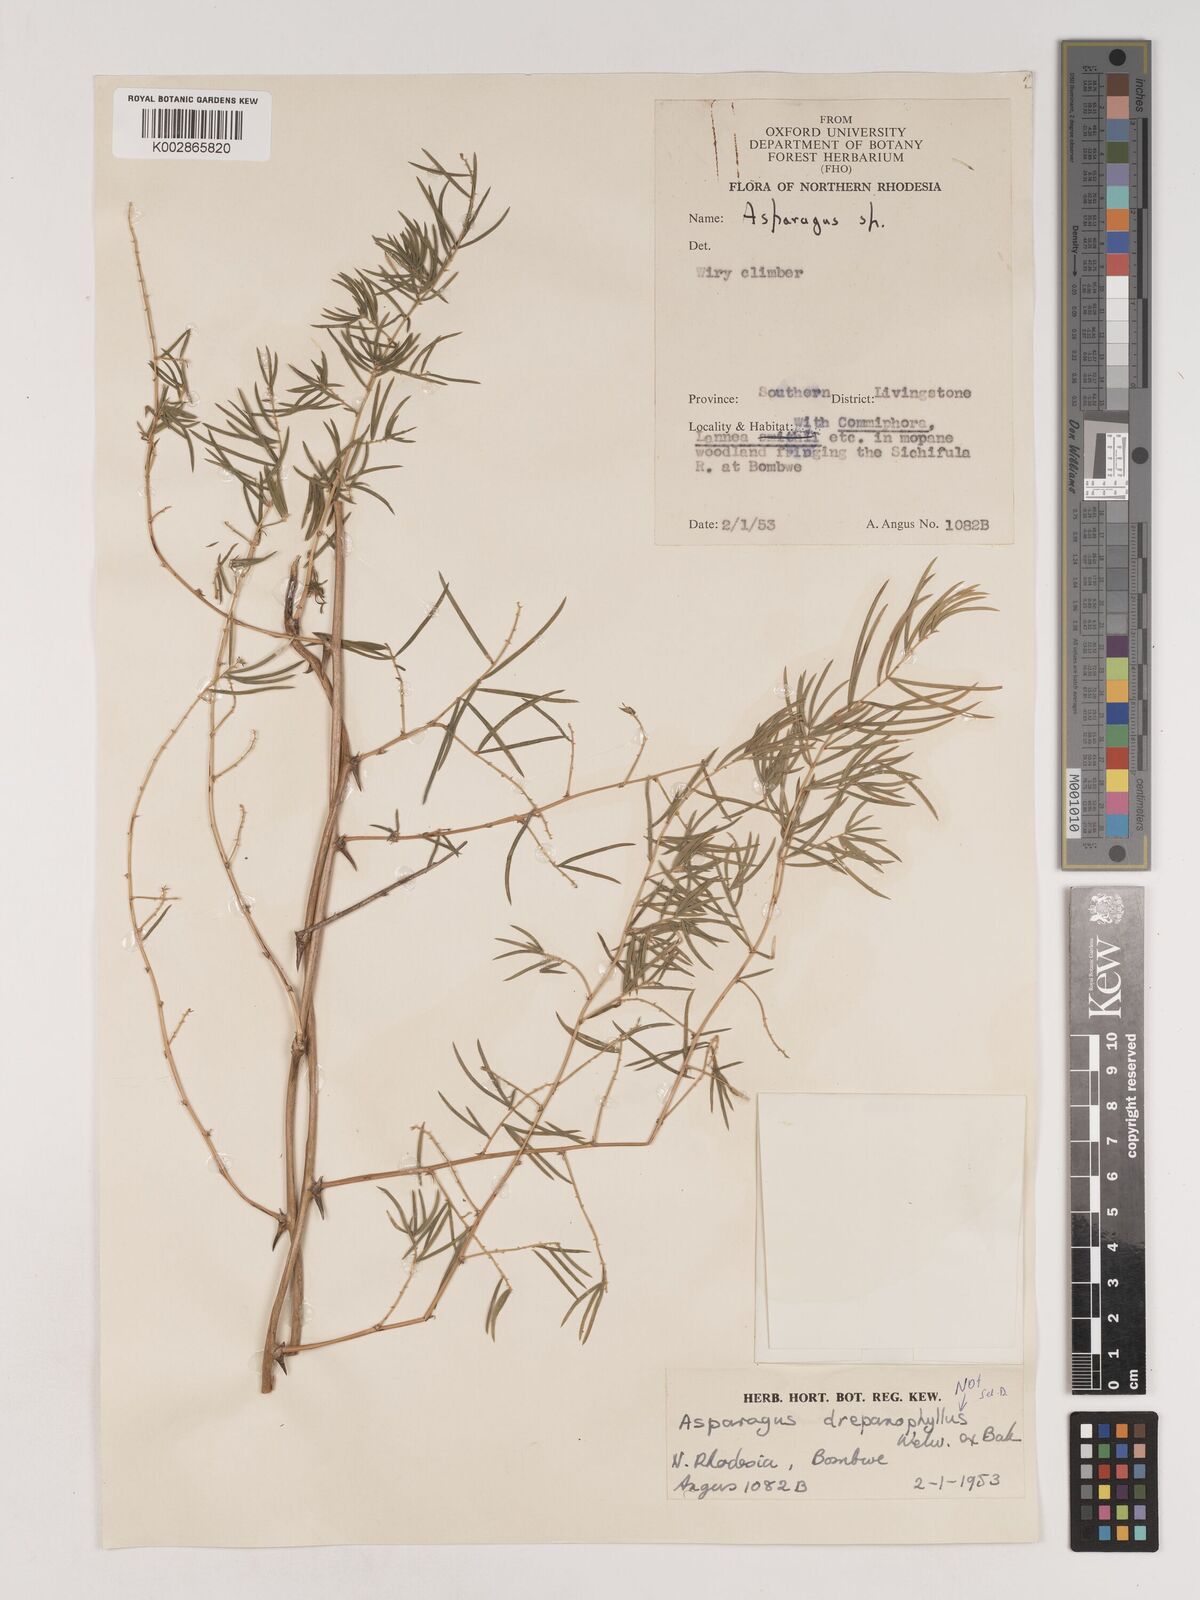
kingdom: Plantae
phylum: Tracheophyta
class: Liliopsida
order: Asparagales
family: Asparagaceae
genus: Asparagus
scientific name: Asparagus drepanophyllus
